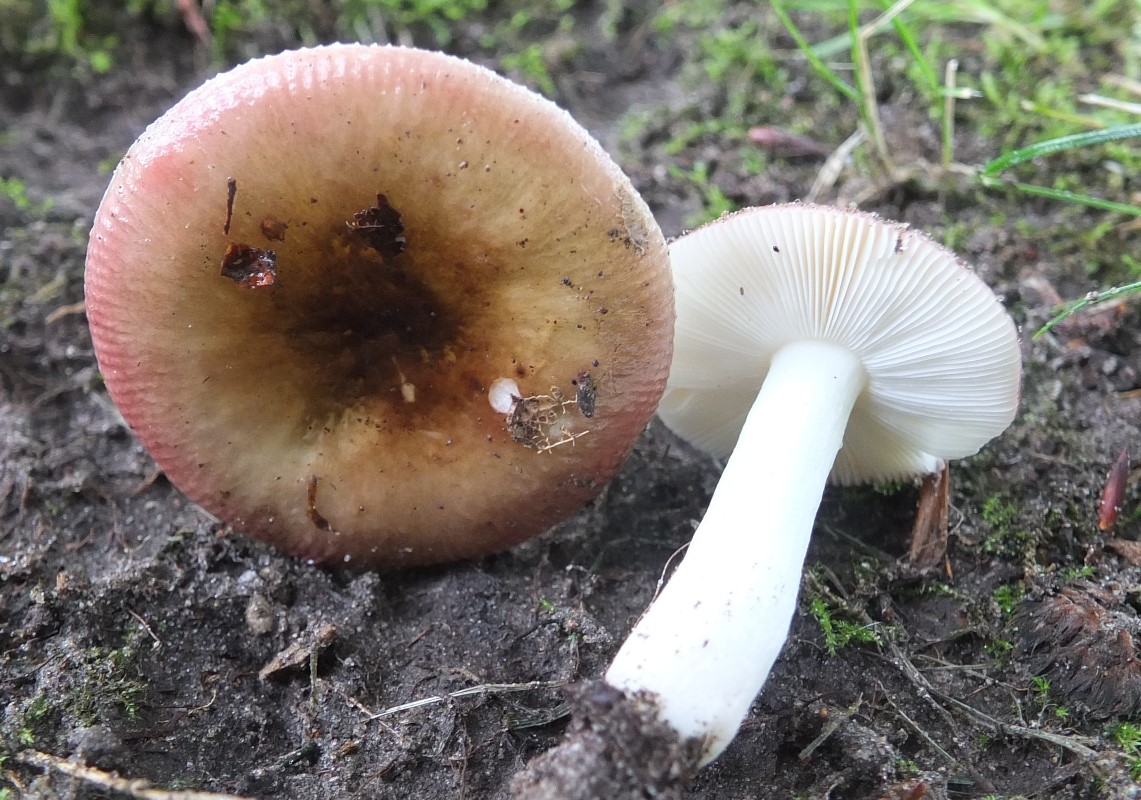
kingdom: Fungi
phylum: Basidiomycota
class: Agaricomycetes
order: Russulales
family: Russulaceae
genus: Russula
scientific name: Russula nitida
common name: året skørhat
